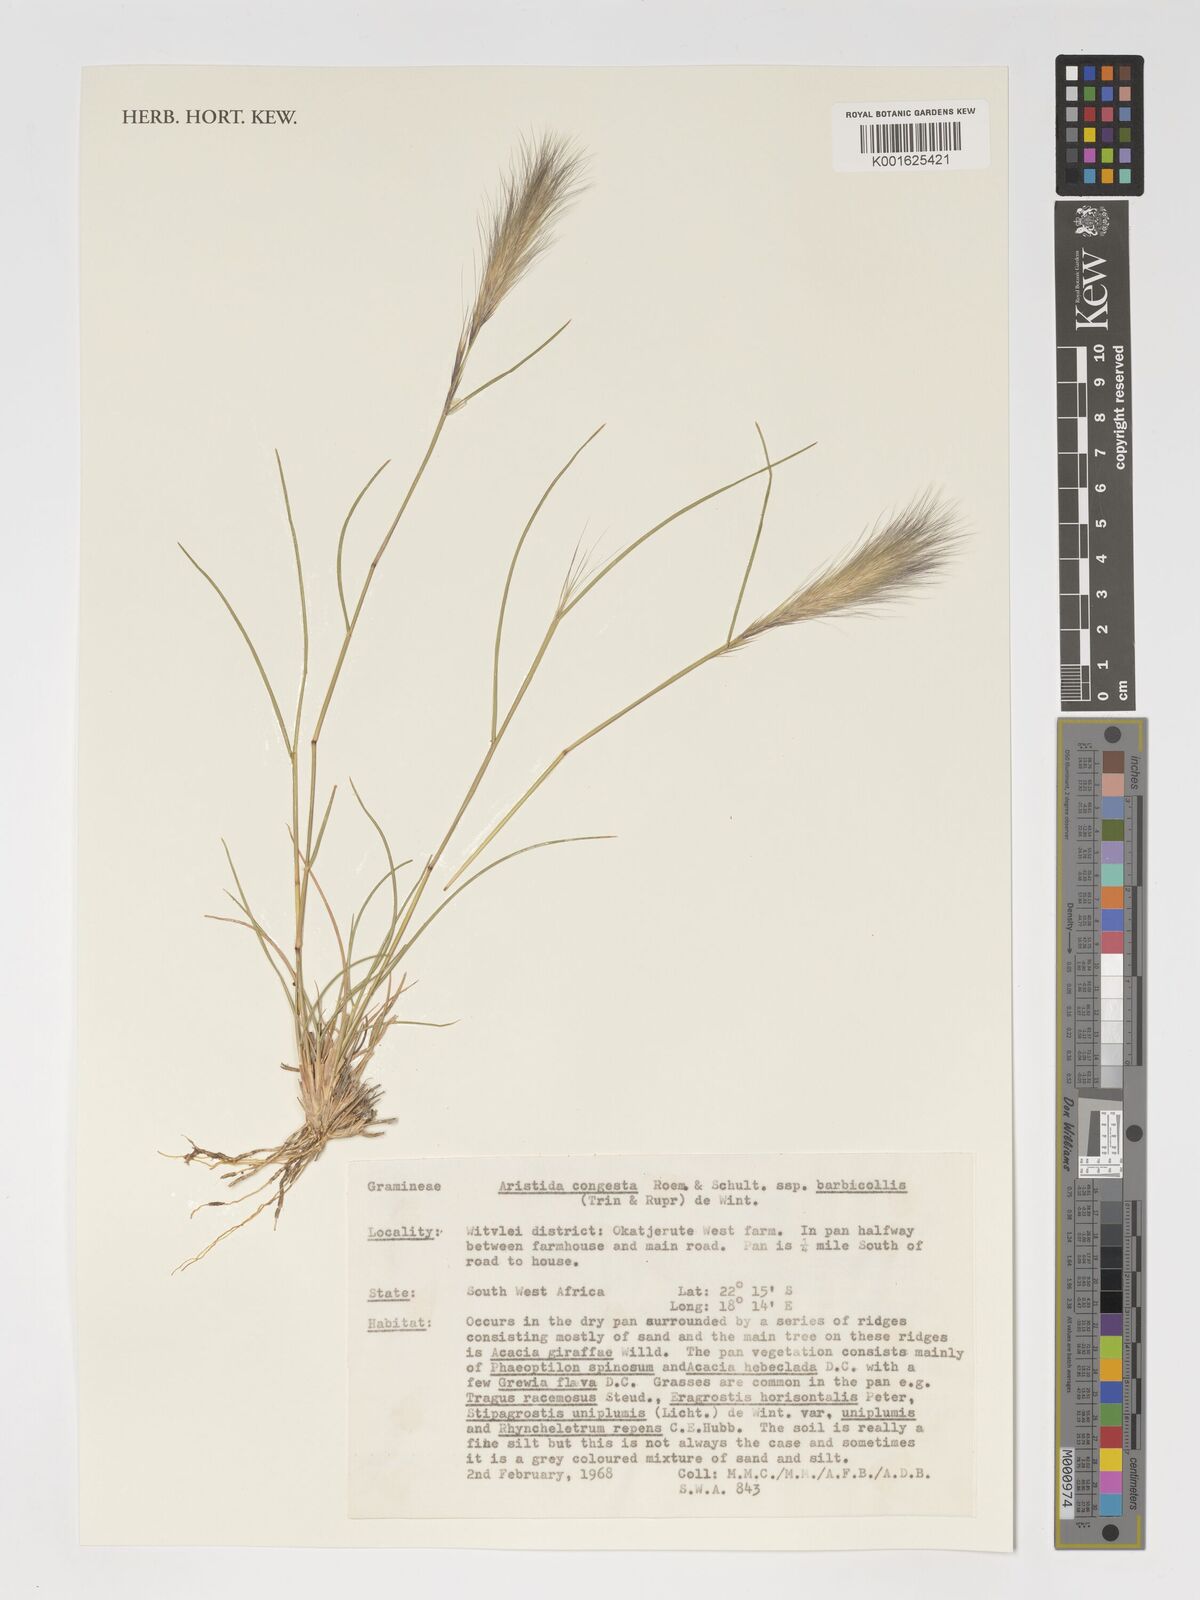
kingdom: Plantae
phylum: Tracheophyta
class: Liliopsida
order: Poales
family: Poaceae
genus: Aristida
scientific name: Aristida congesta
